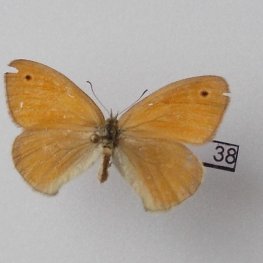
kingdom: Animalia
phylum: Arthropoda
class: Insecta
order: Lepidoptera
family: Nymphalidae
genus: Coenonympha
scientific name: Coenonympha tullia
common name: Large Heath
